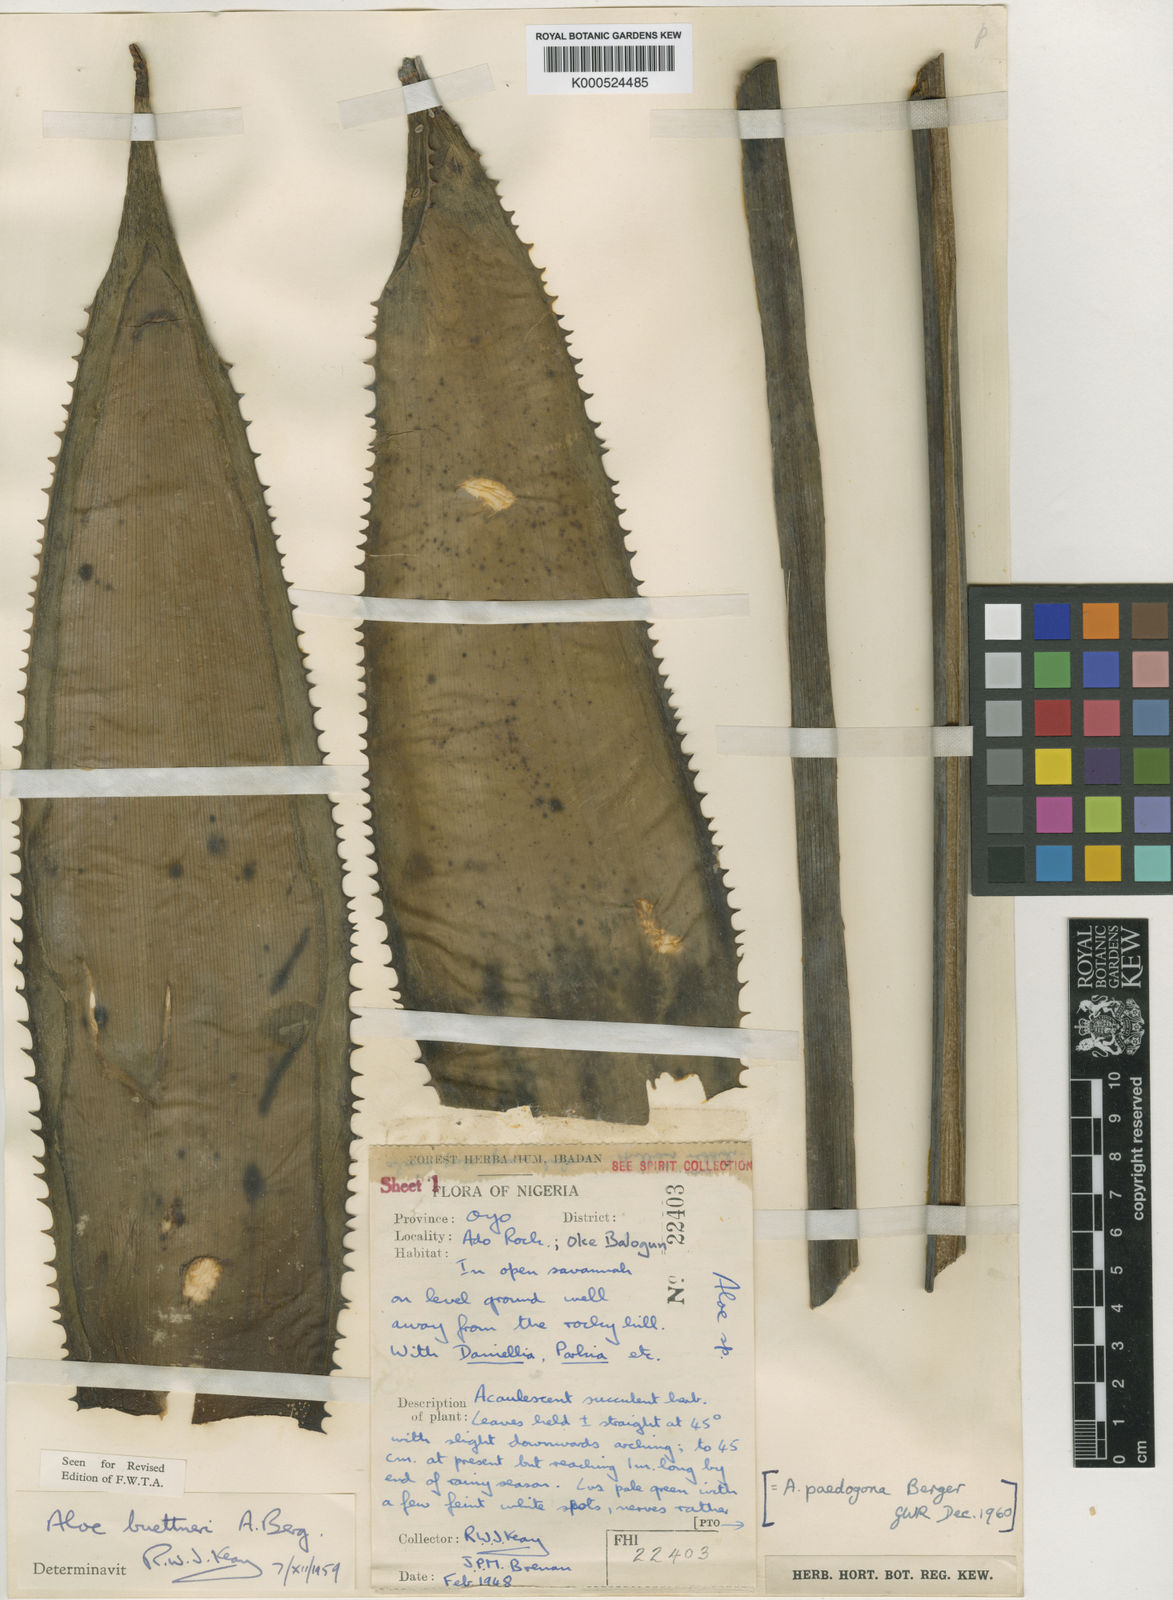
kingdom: Plantae
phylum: Tracheophyta
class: Liliopsida
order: Asparagales
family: Asphodelaceae
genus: Aloe
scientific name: Aloe buettneri
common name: West african aloe
